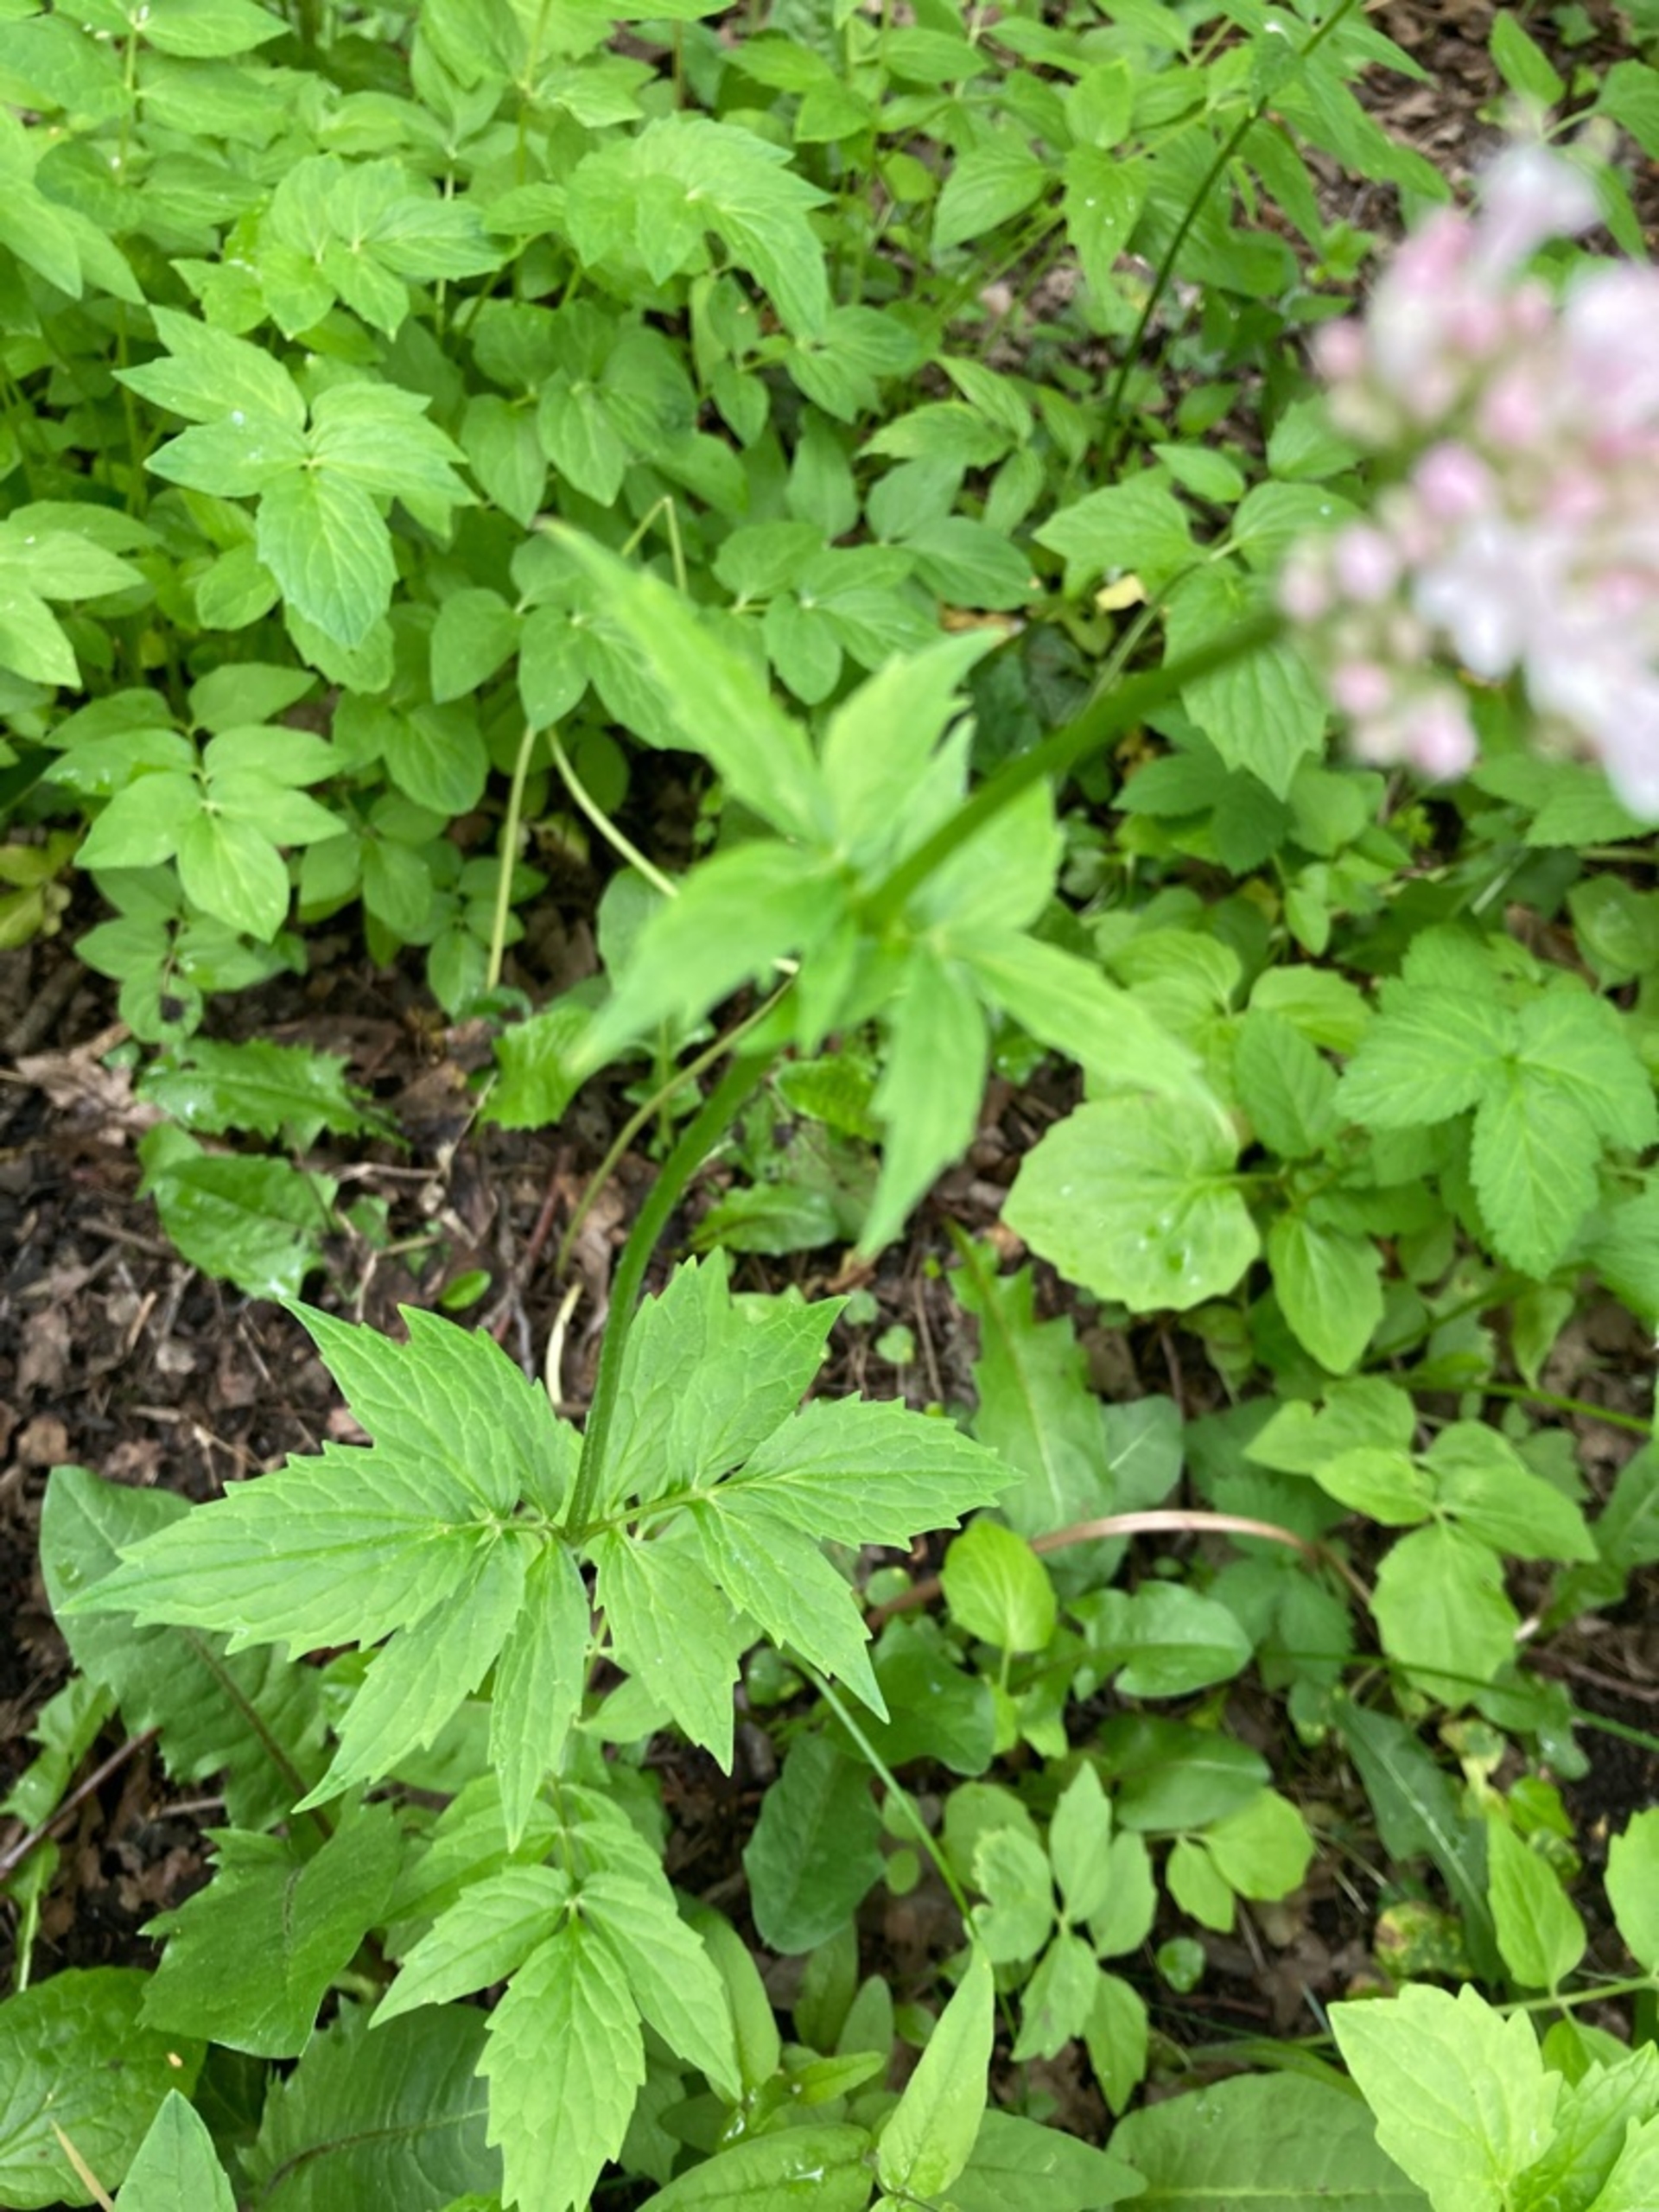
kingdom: Plantae
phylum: Tracheophyta
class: Magnoliopsida
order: Dipsacales
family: Caprifoliaceae
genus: Valeriana
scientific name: Valeriana sambucifolia
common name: Hyldebladet baldrian (underart)
